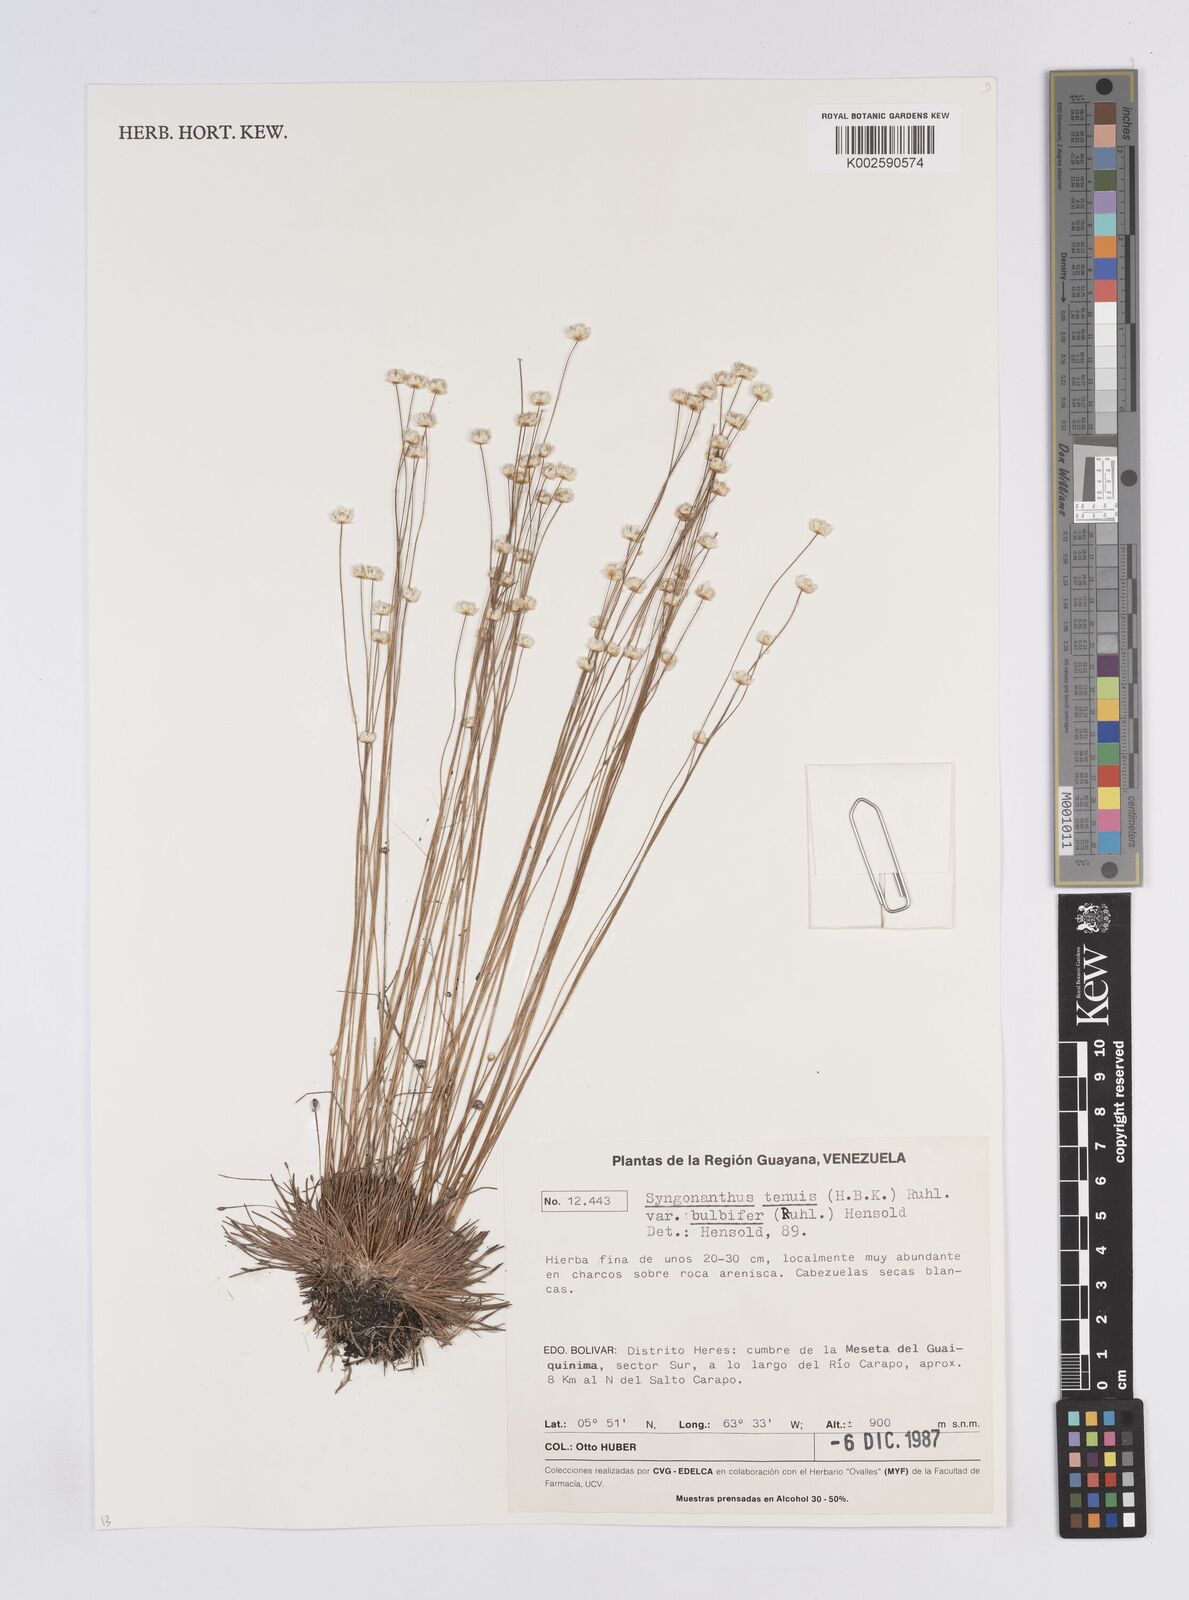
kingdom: Plantae
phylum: Tracheophyta
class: Liliopsida
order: Poales
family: Eriocaulaceae
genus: Syngonanthus
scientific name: Syngonanthus tenuis
